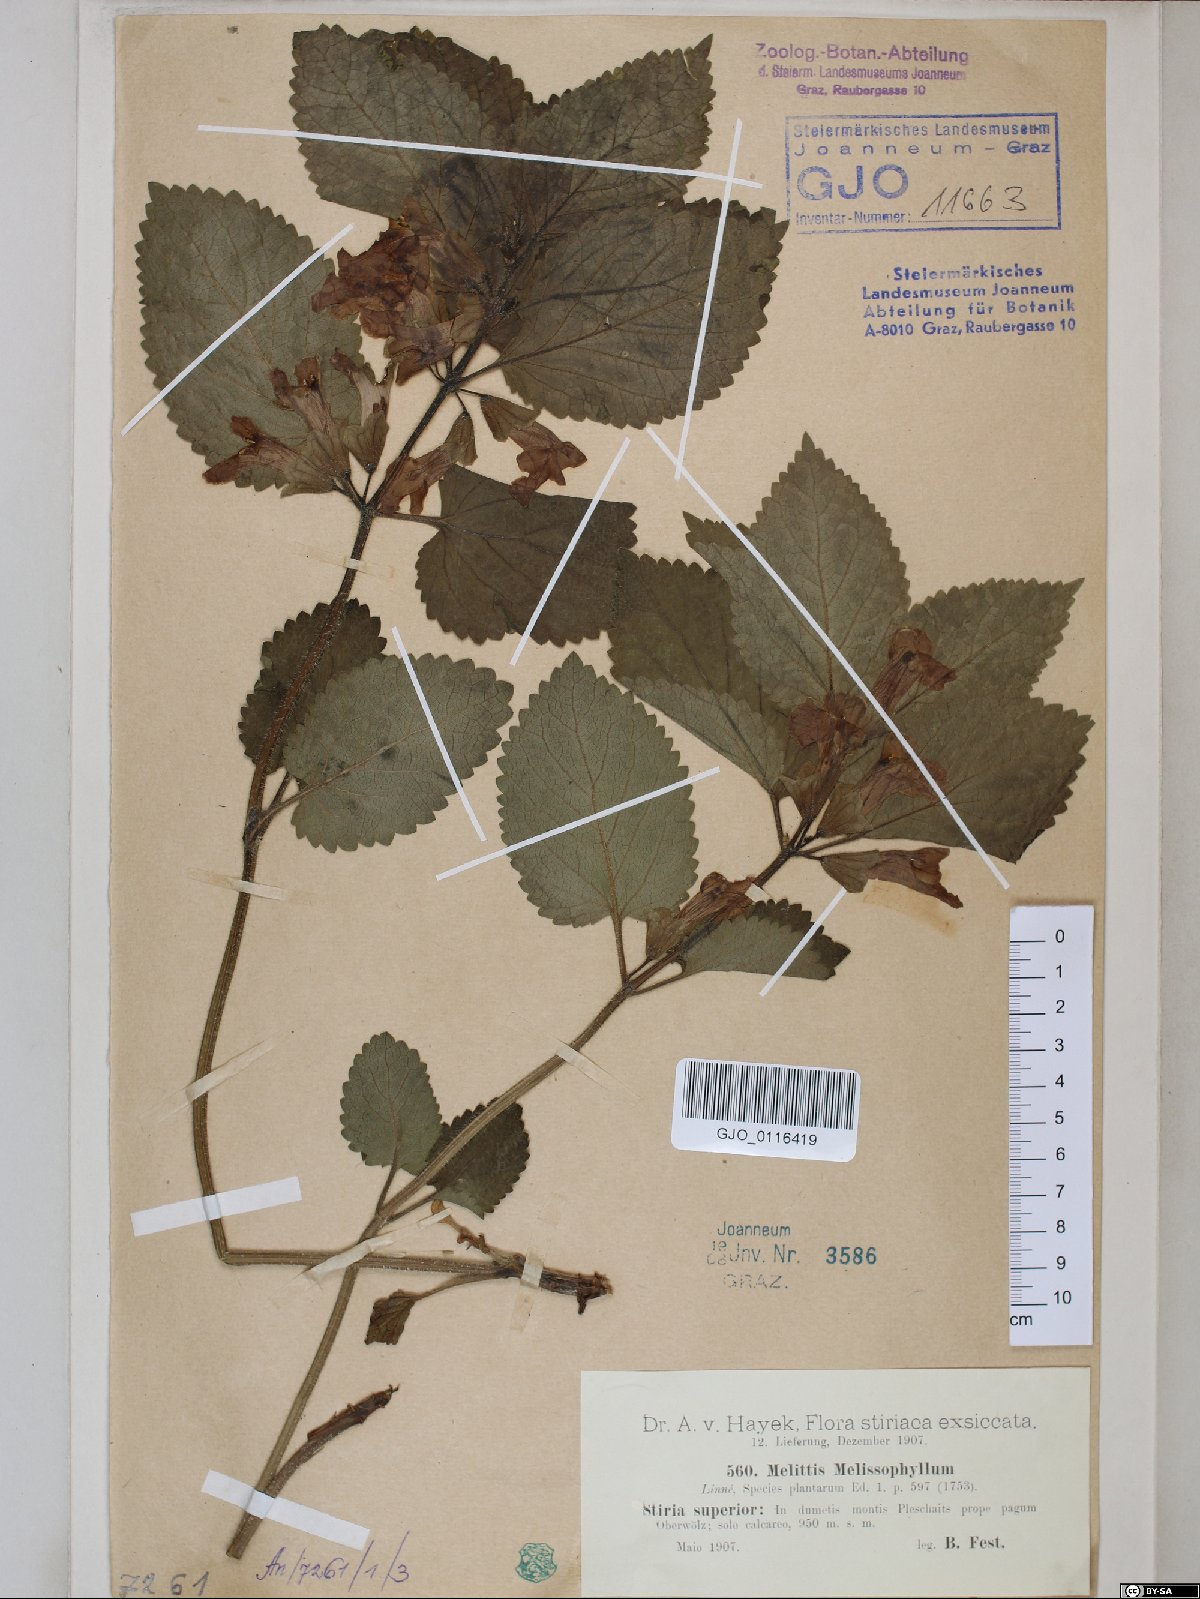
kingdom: Plantae
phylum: Tracheophyta
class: Magnoliopsida
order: Lamiales
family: Lamiaceae
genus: Melittis
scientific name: Melittis melissophyllum
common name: Bastard balm
